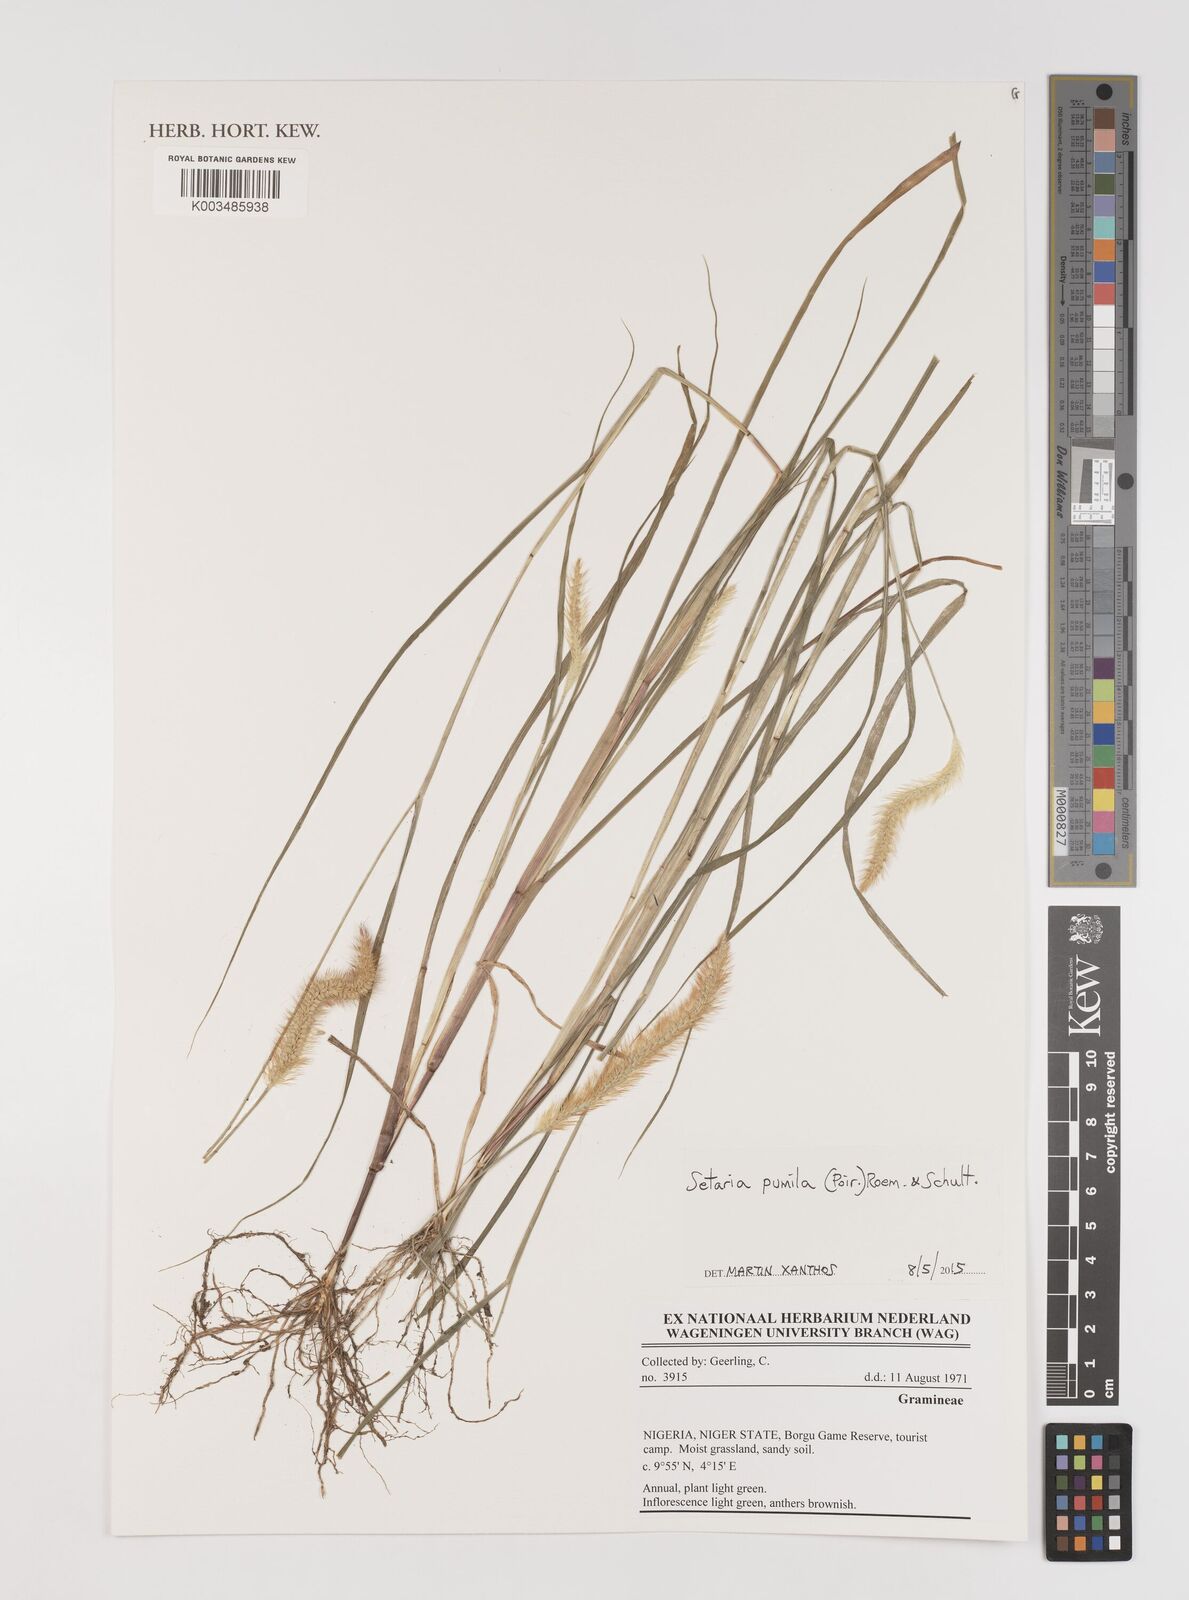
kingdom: Plantae
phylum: Tracheophyta
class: Liliopsida
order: Poales
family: Poaceae
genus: Setaria
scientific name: Setaria pumila
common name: Yellow bristle-grass
